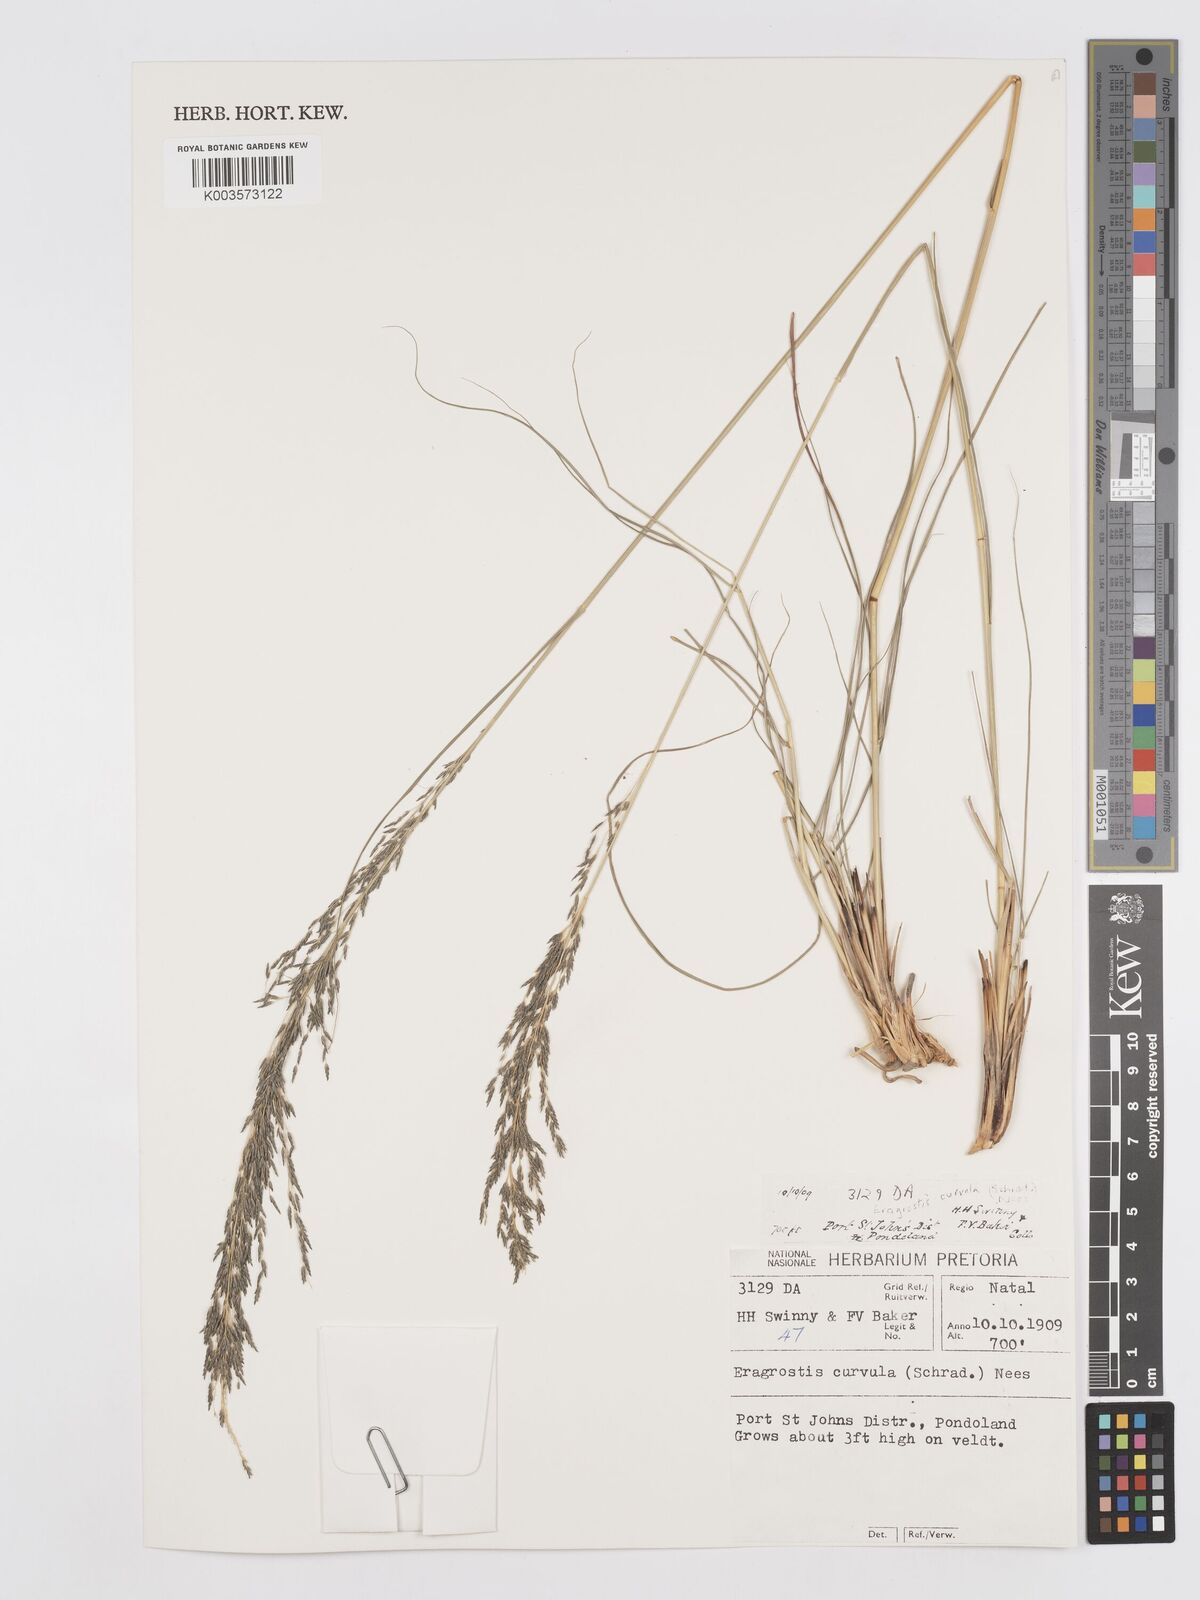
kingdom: Plantae
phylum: Tracheophyta
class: Liliopsida
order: Poales
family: Poaceae
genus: Eragrostis
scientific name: Eragrostis curvula
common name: African love-grass
